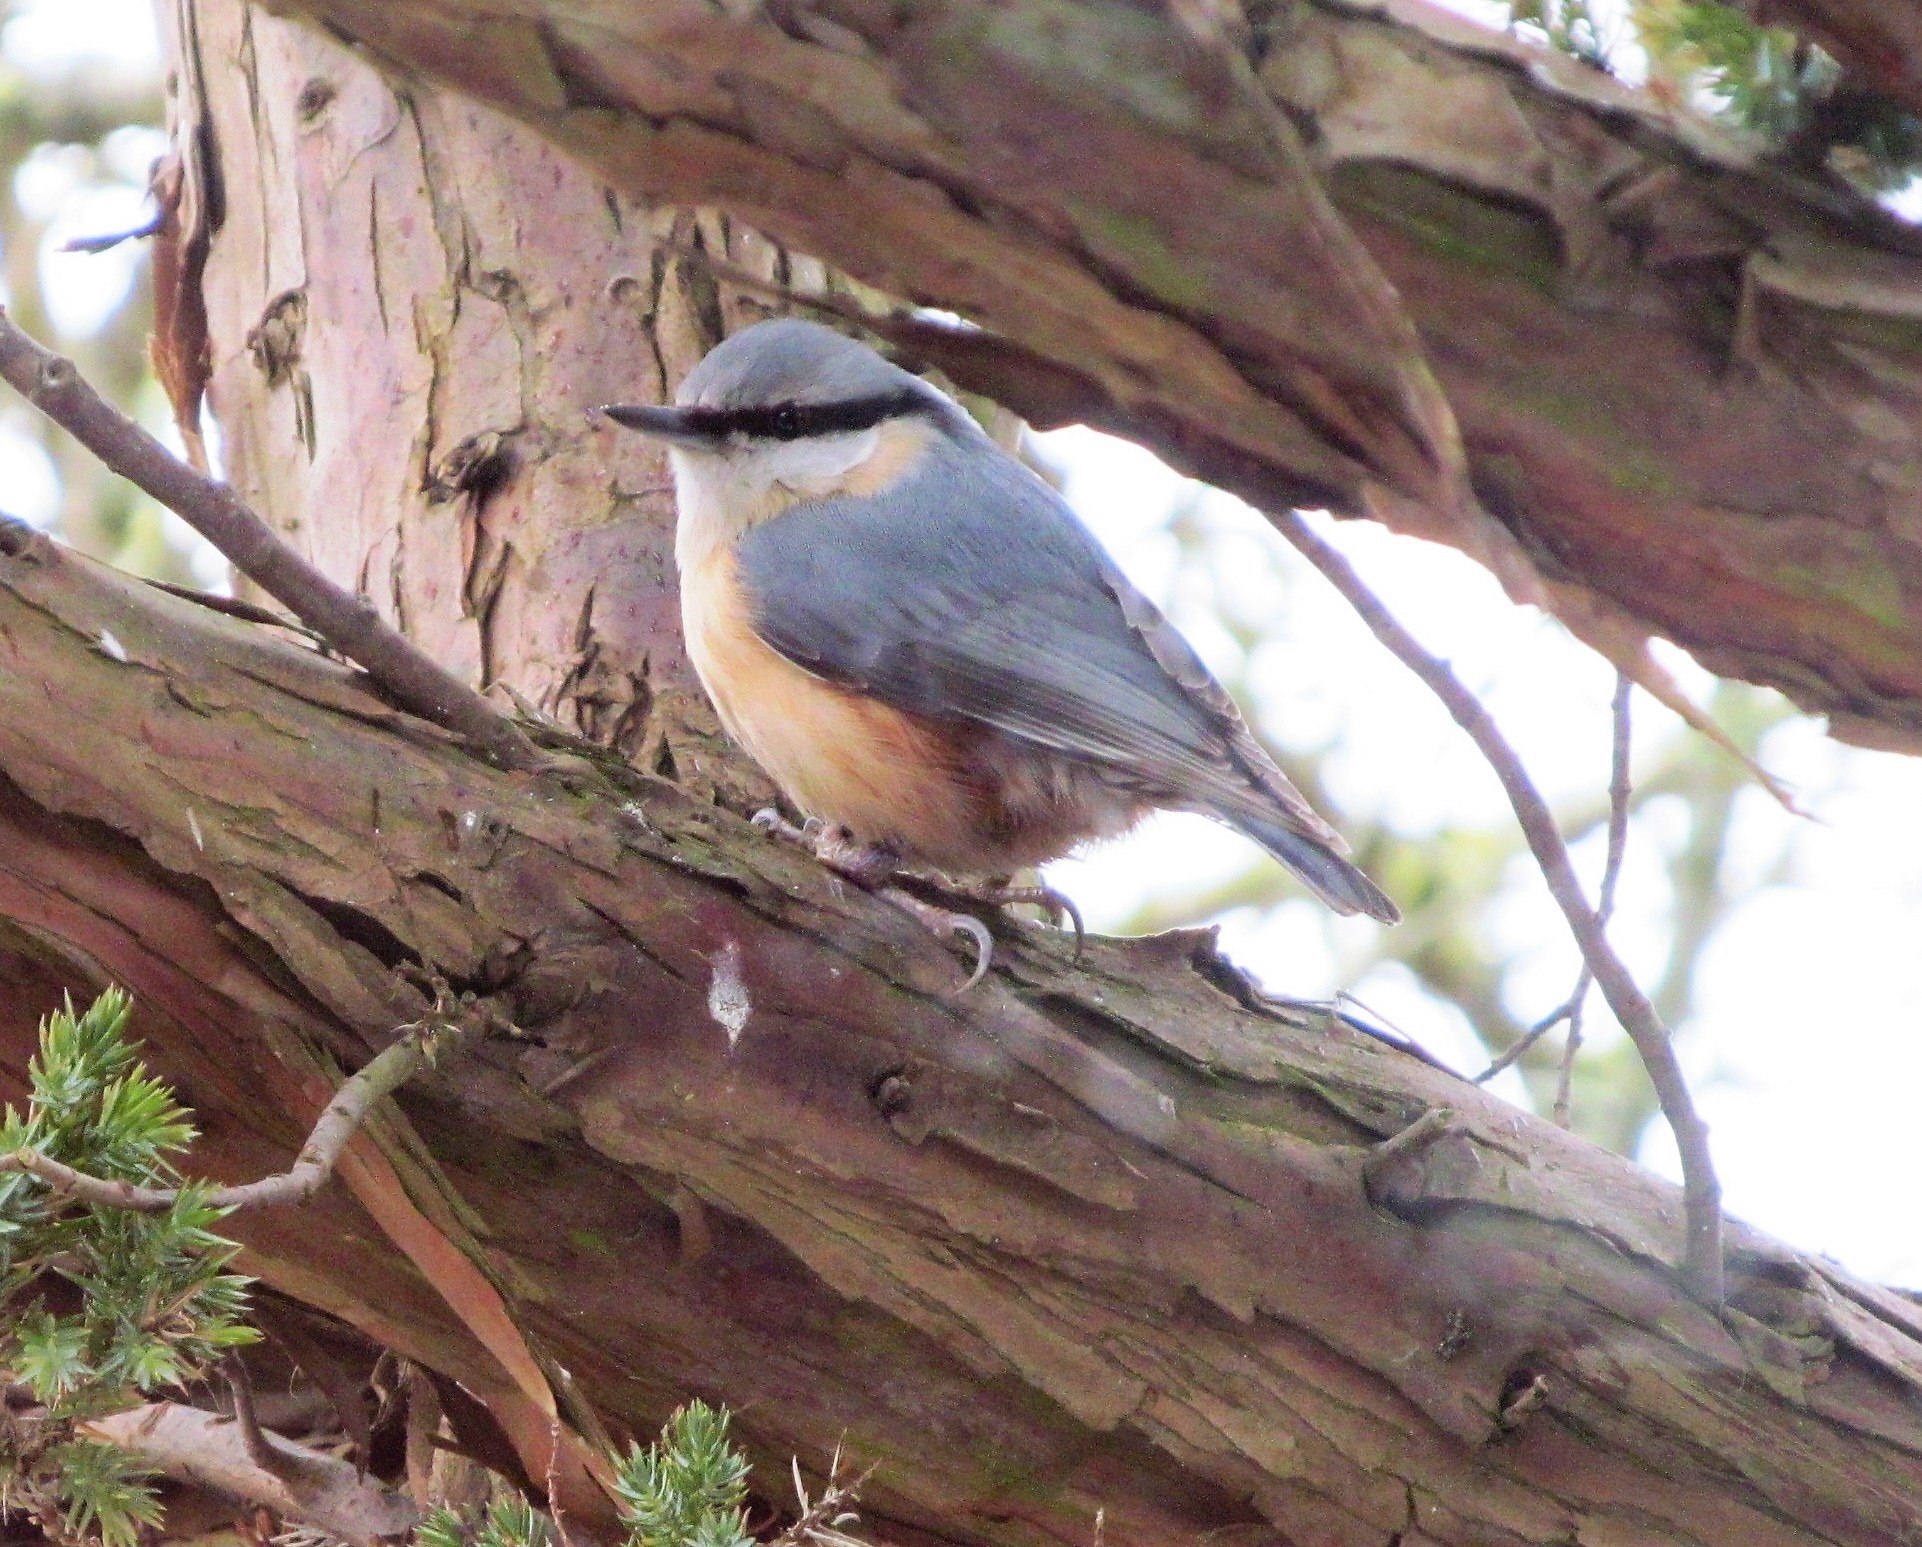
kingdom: Animalia
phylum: Chordata
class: Aves
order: Passeriformes
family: Sittidae
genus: Sitta
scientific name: Sitta europaea
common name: Spætmejse
